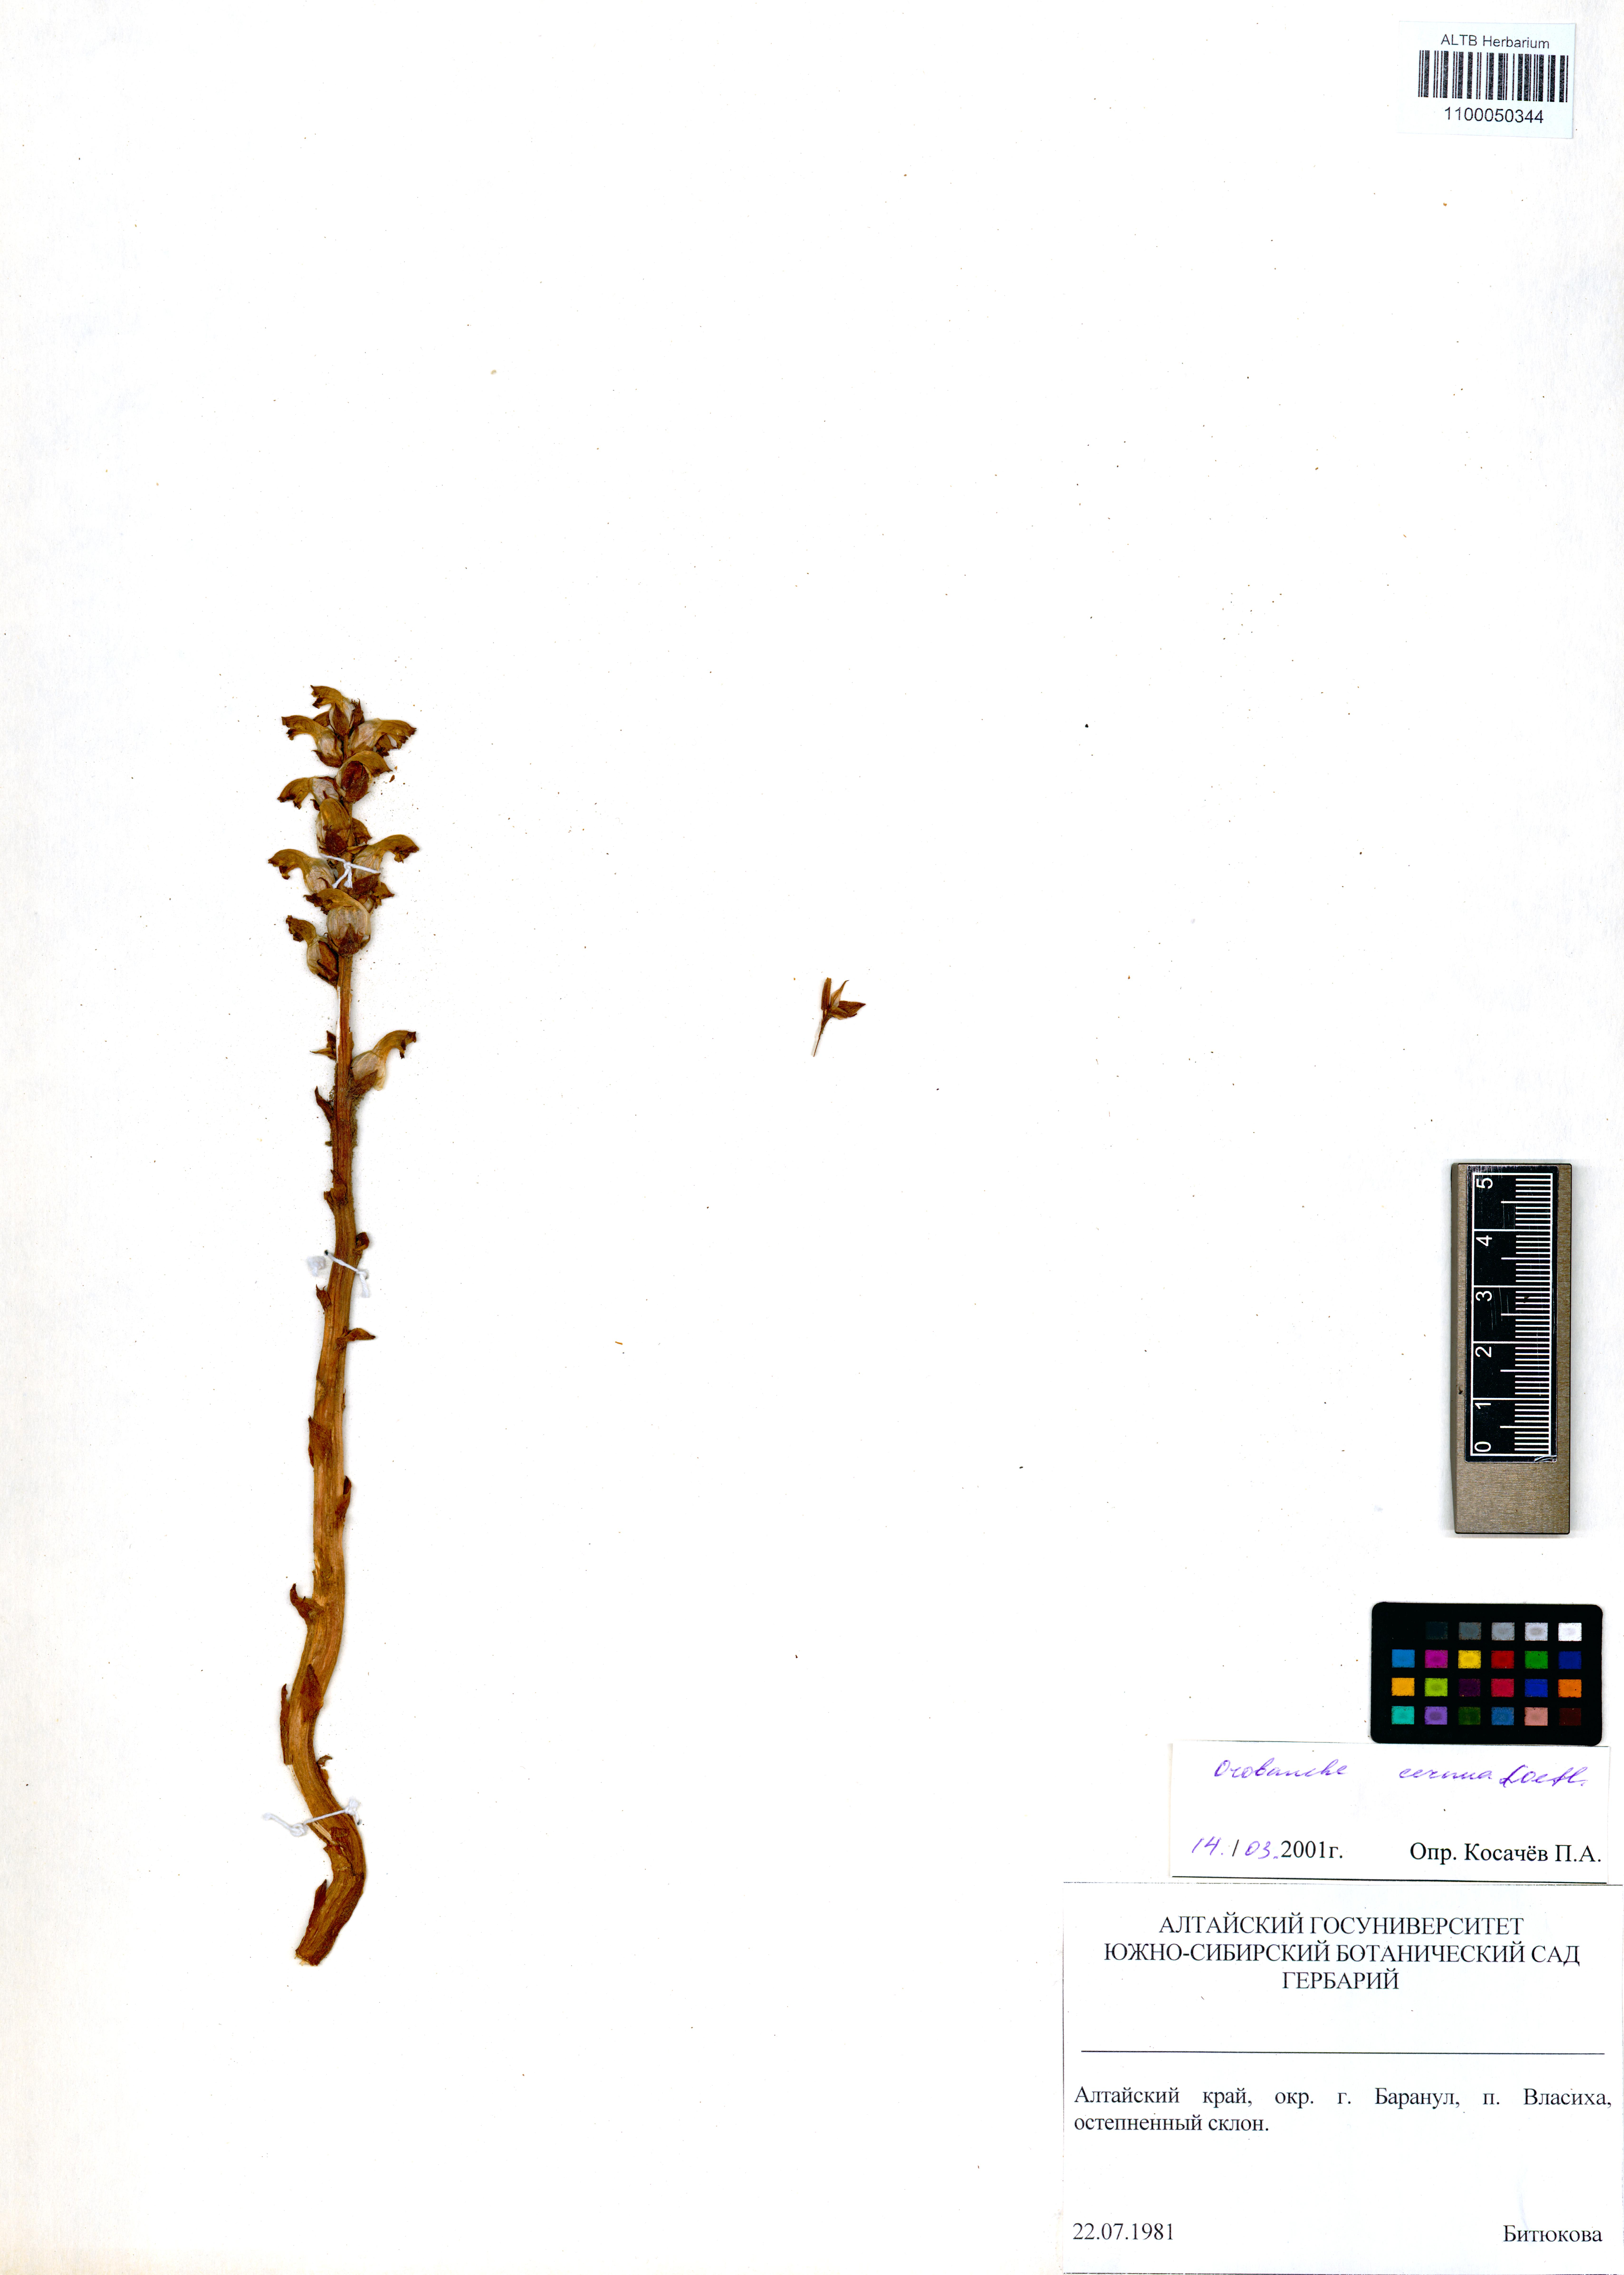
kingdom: Plantae
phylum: Tracheophyta
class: Magnoliopsida
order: Lamiales
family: Orobanchaceae
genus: Orobanche
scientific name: Orobanche cernua
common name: Australian broomrape
